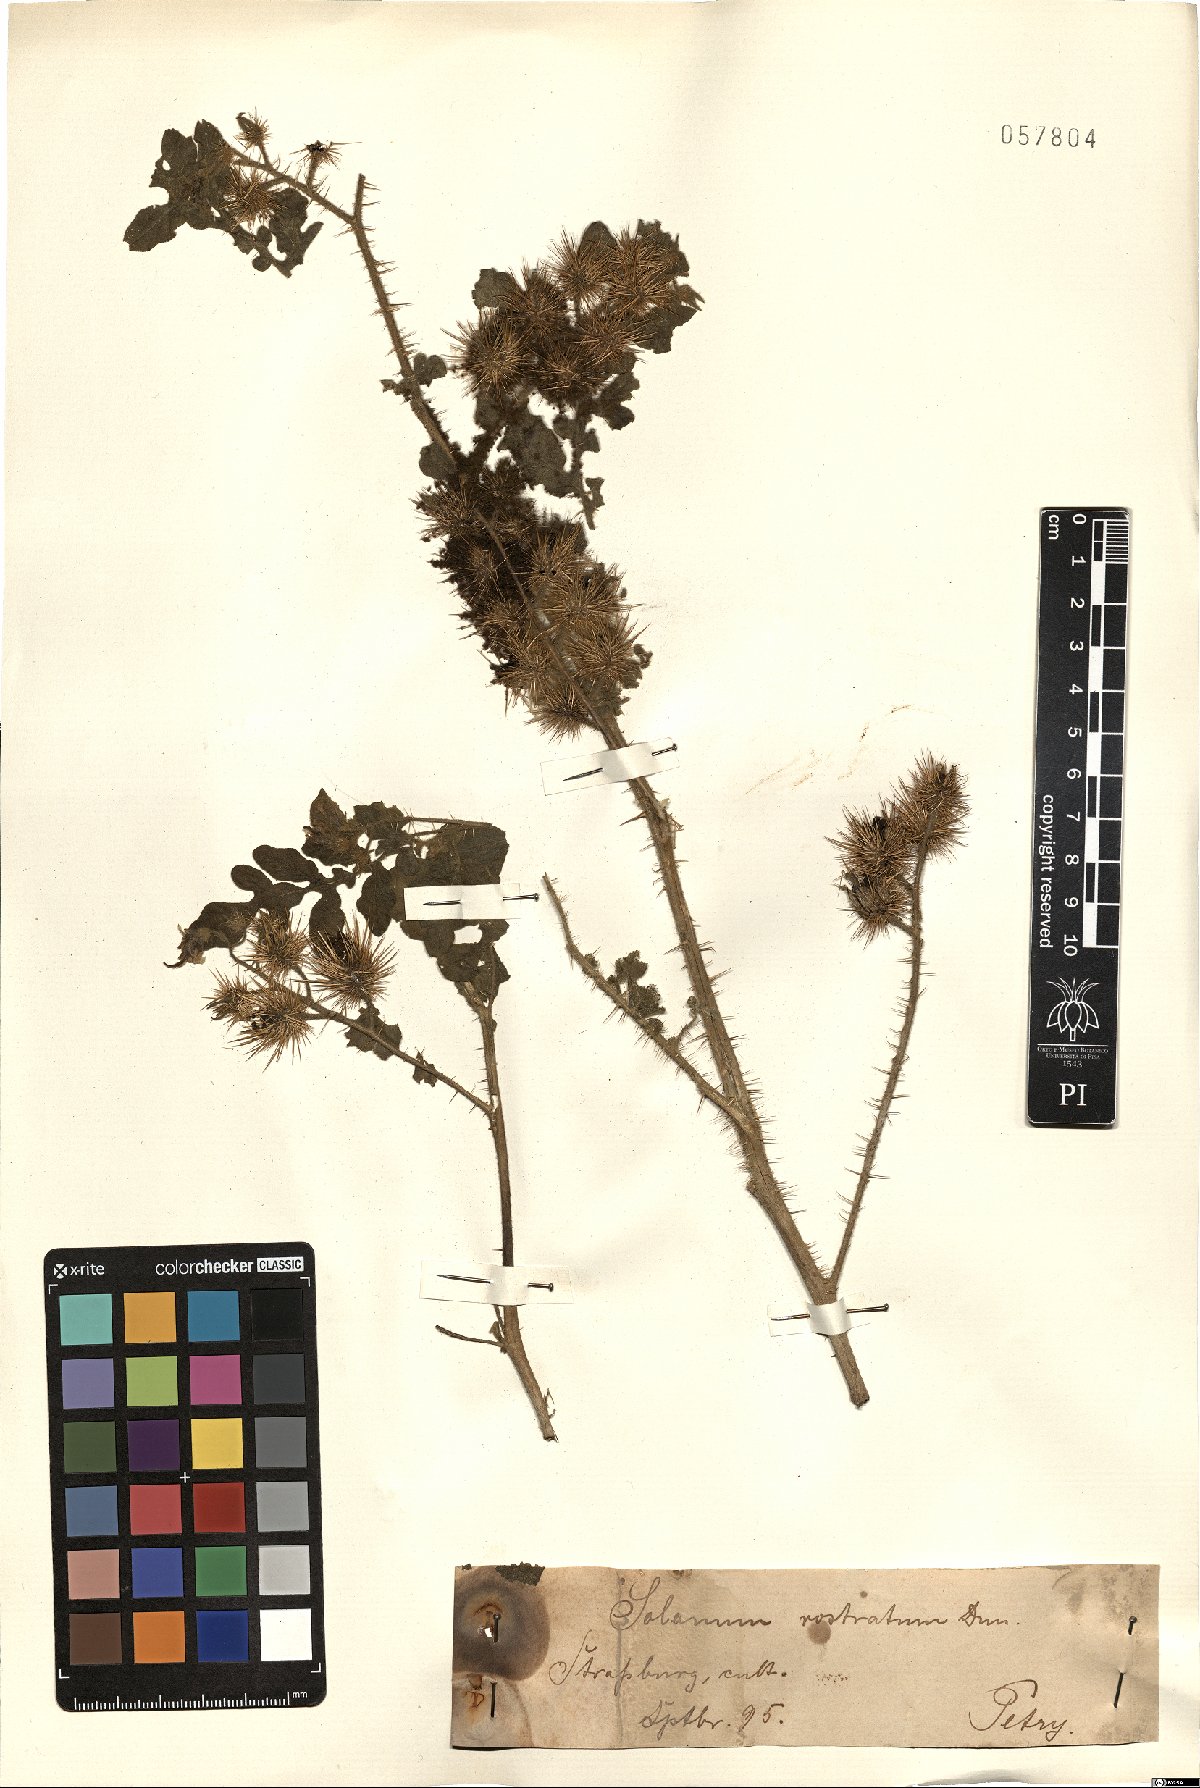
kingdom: Plantae
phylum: Tracheophyta
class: Magnoliopsida
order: Solanales
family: Solanaceae
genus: Solanum
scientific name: Solanum angustifolium
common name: Buffalobur nightshade
